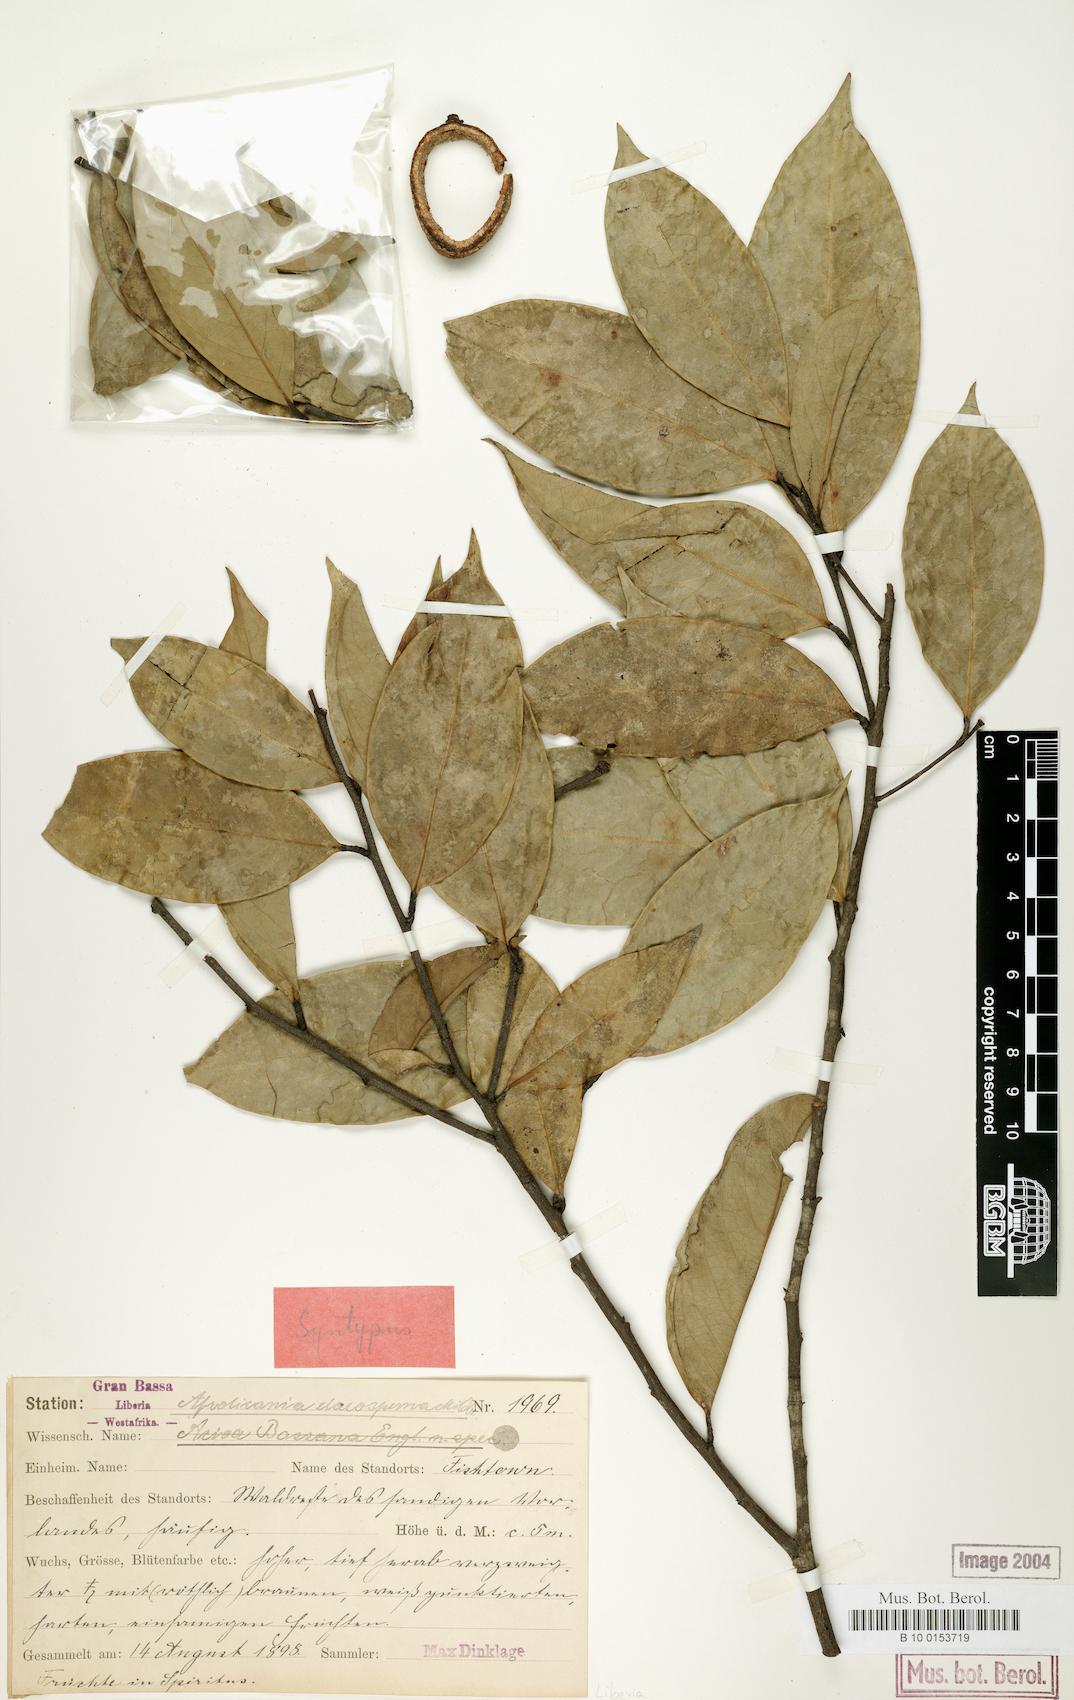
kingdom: Plantae
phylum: Tracheophyta
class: Magnoliopsida
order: Malpighiales
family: Chrysobalanaceae
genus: Afrolicania
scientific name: Afrolicania elaeosperma
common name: Nikko
